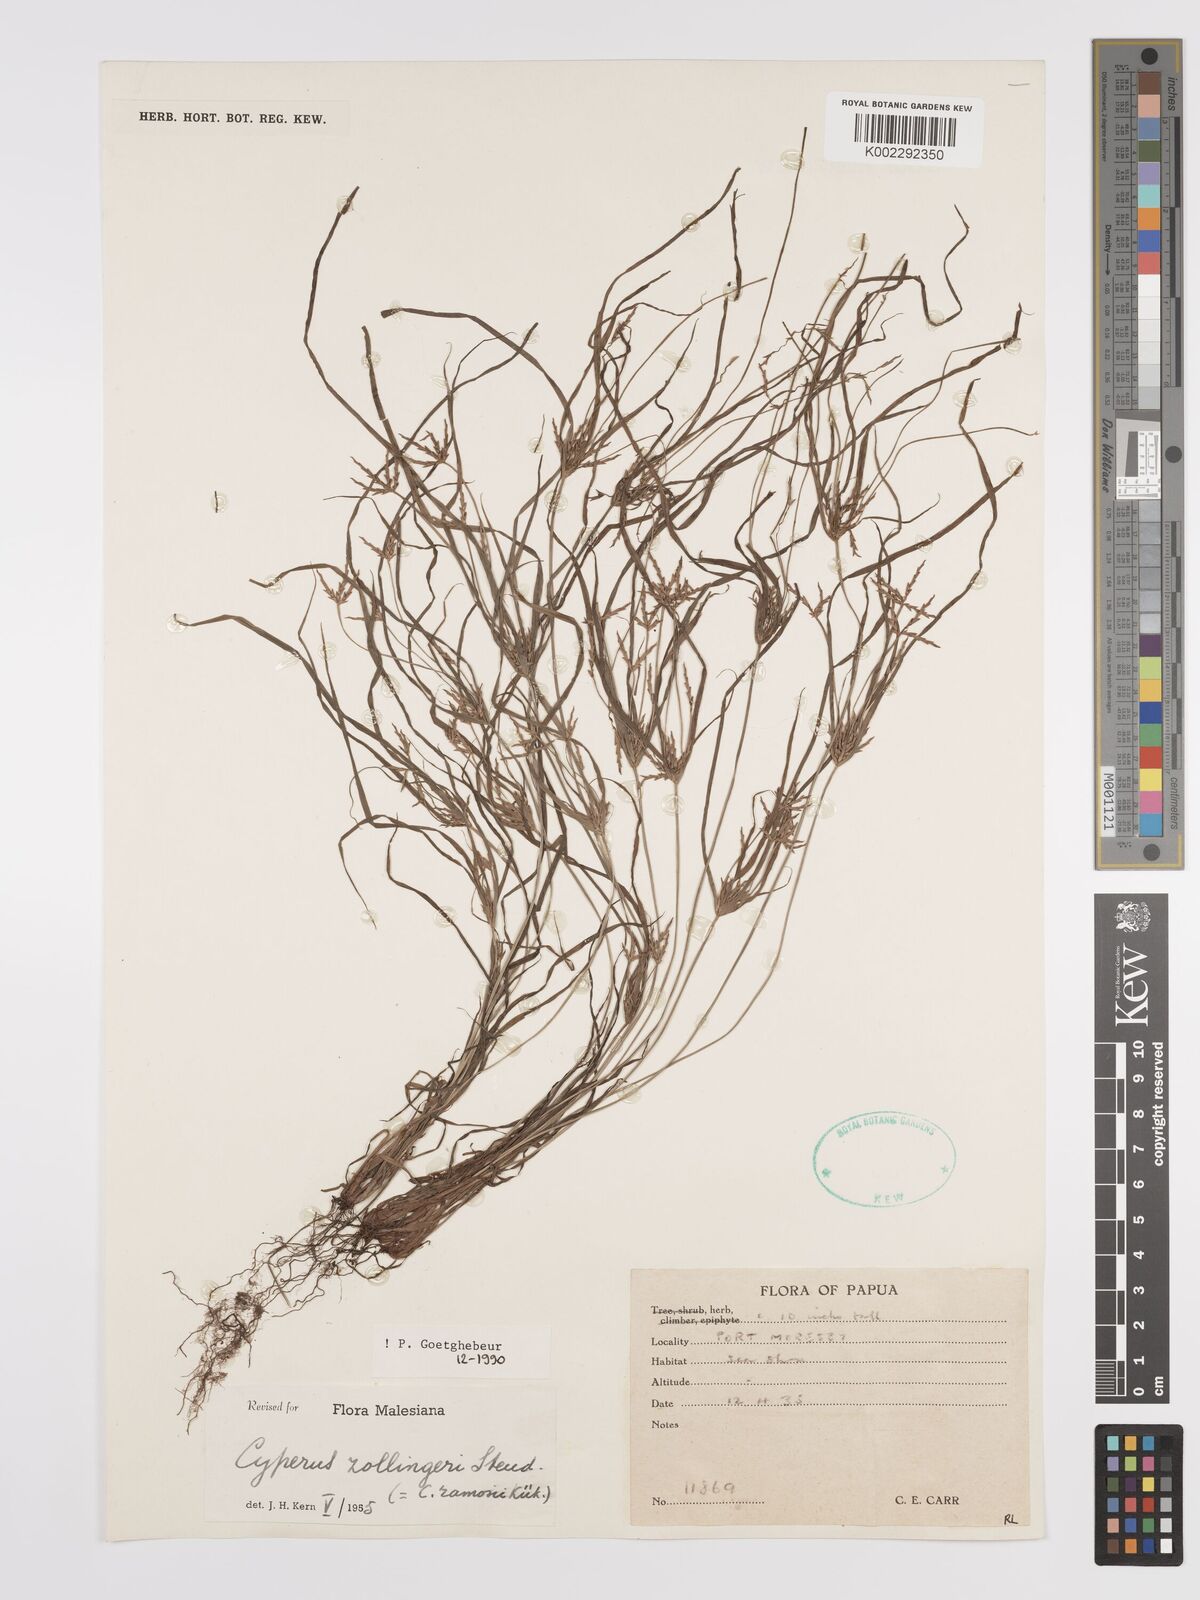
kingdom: Plantae
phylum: Tracheophyta
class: Liliopsida
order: Poales
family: Cyperaceae
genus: Cyperus
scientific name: Cyperus zollingeri
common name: Roadside flatsedge
